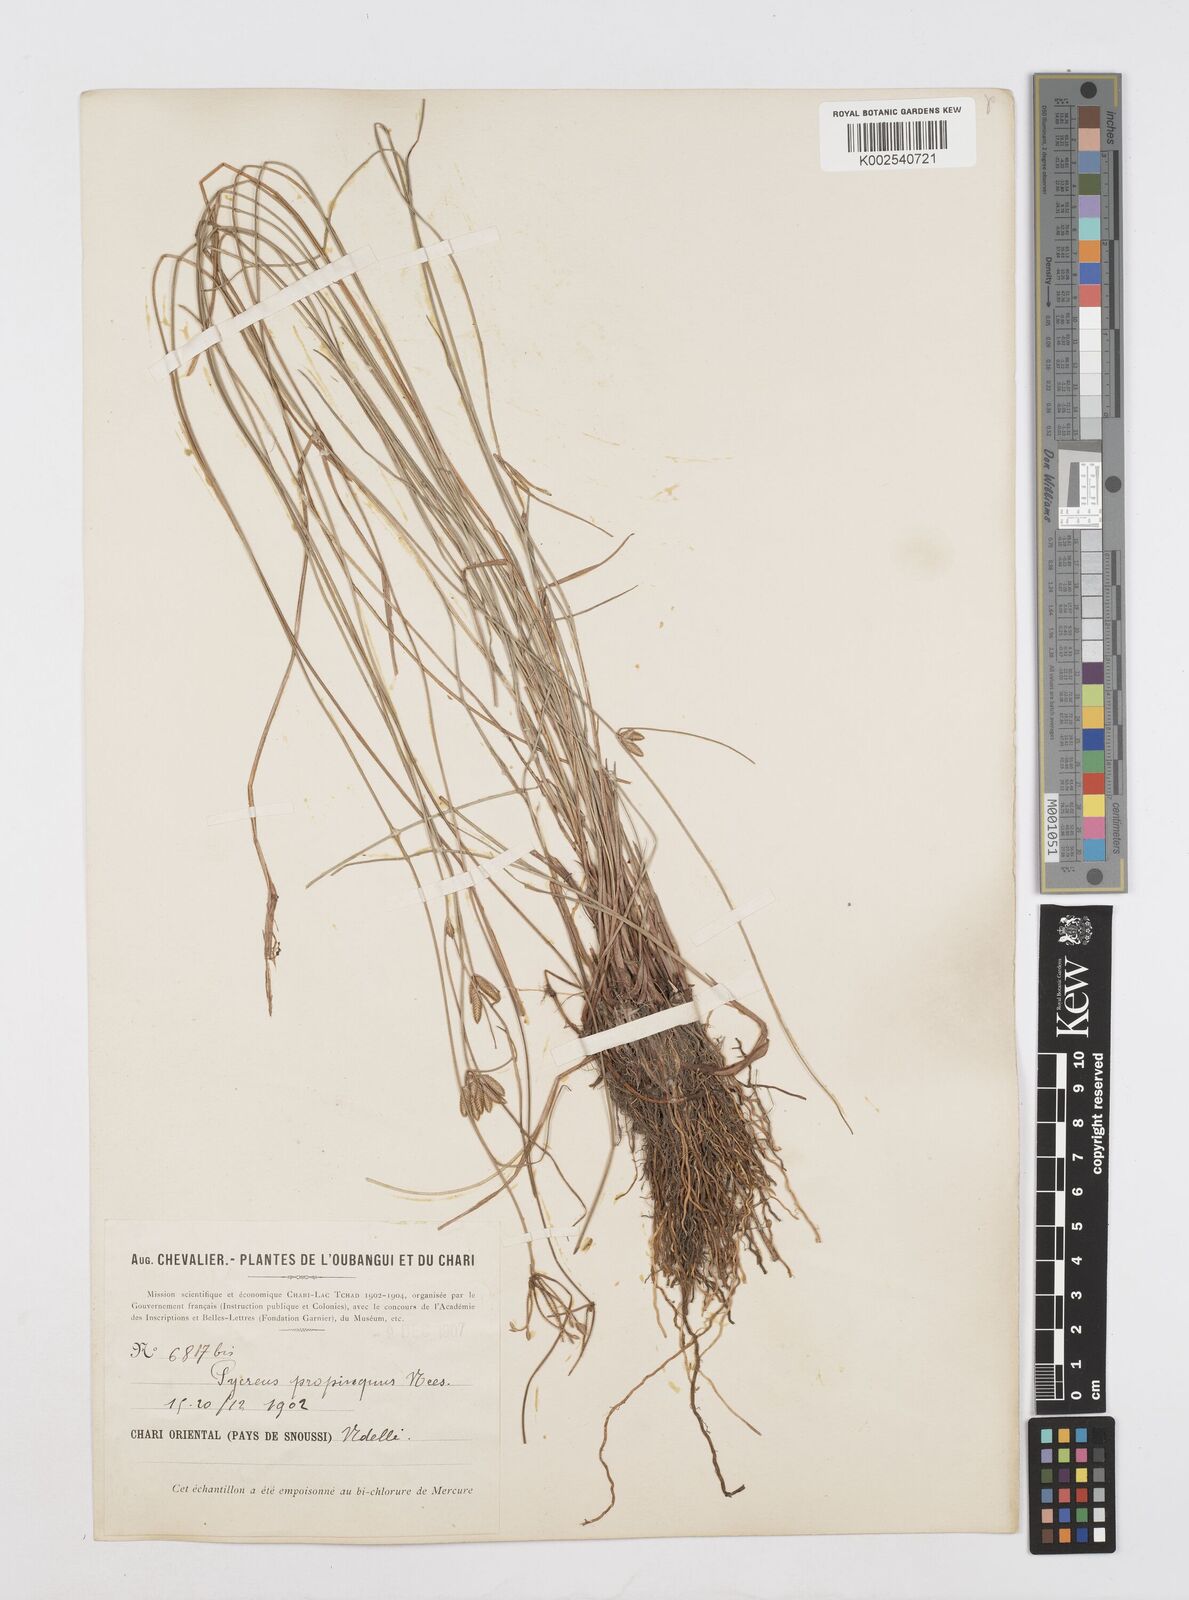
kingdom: Plantae
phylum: Tracheophyta
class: Liliopsida
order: Poales
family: Cyperaceae
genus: Cyperus
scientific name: Cyperus
